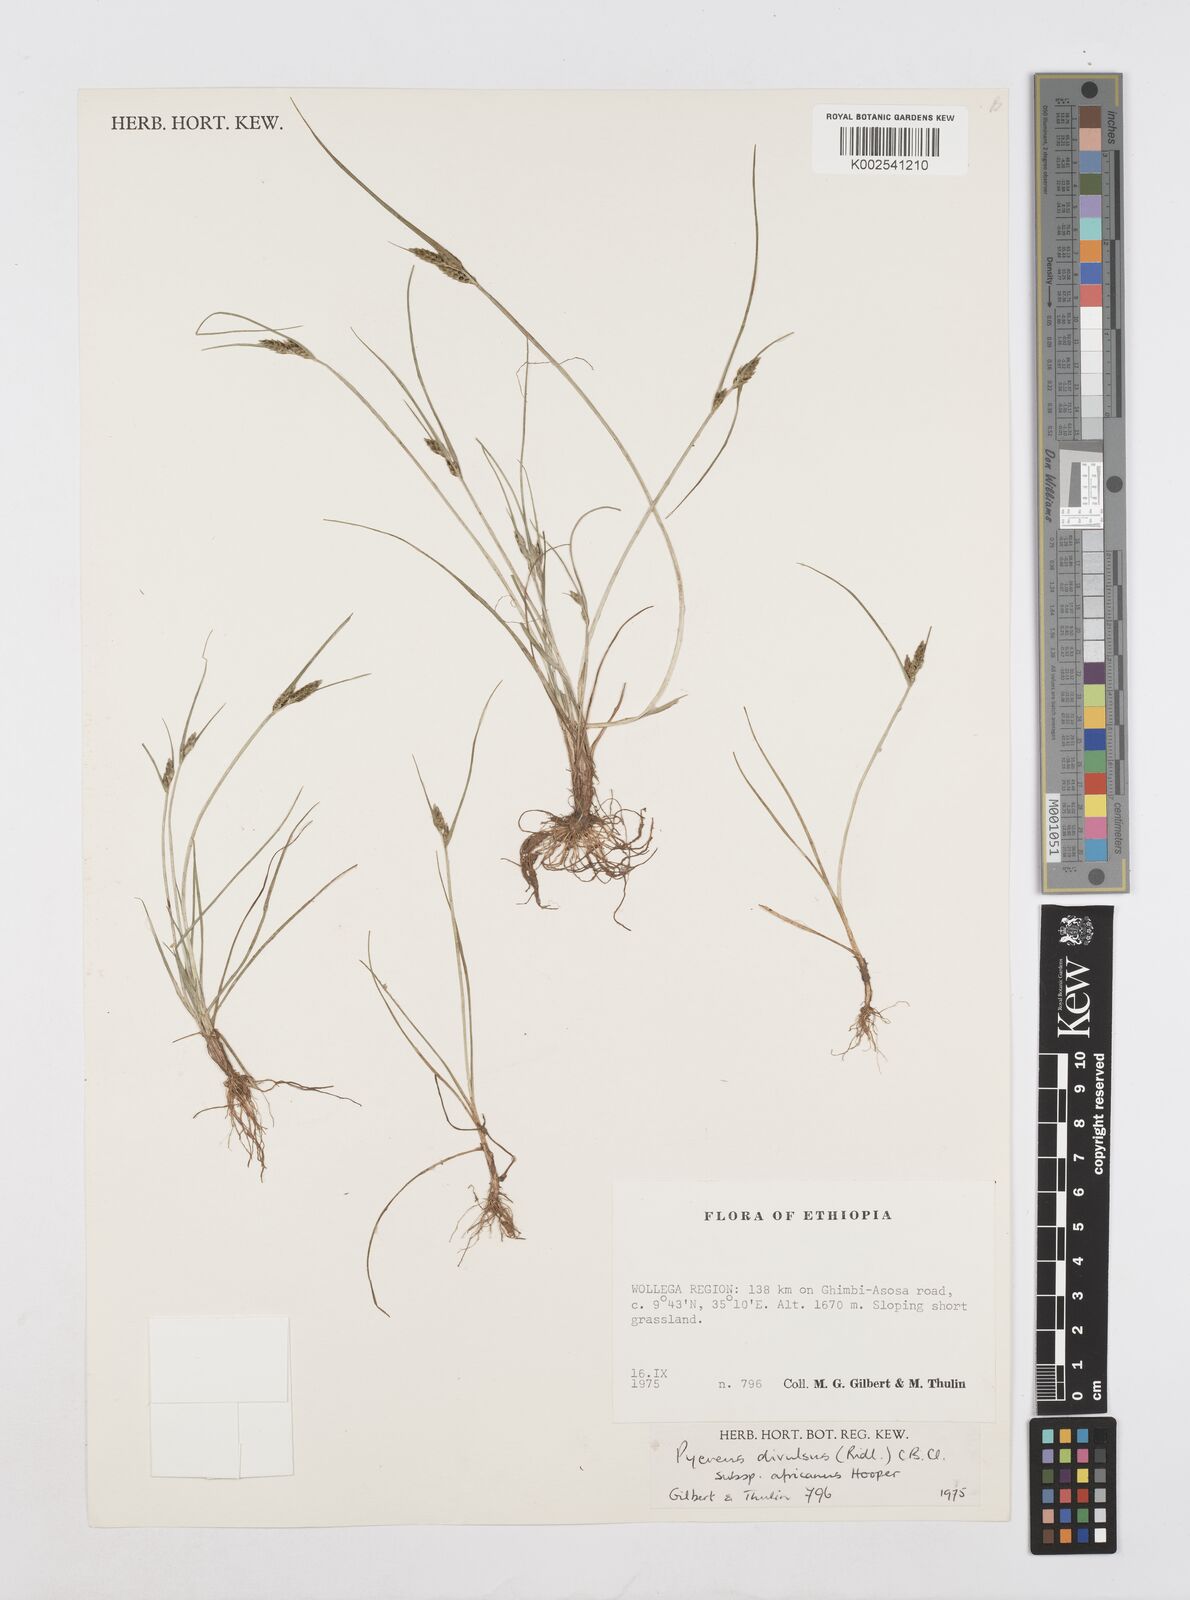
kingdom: Plantae
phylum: Tracheophyta
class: Liliopsida
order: Poales
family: Cyperaceae
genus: Cyperus
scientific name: Cyperus divulsus
